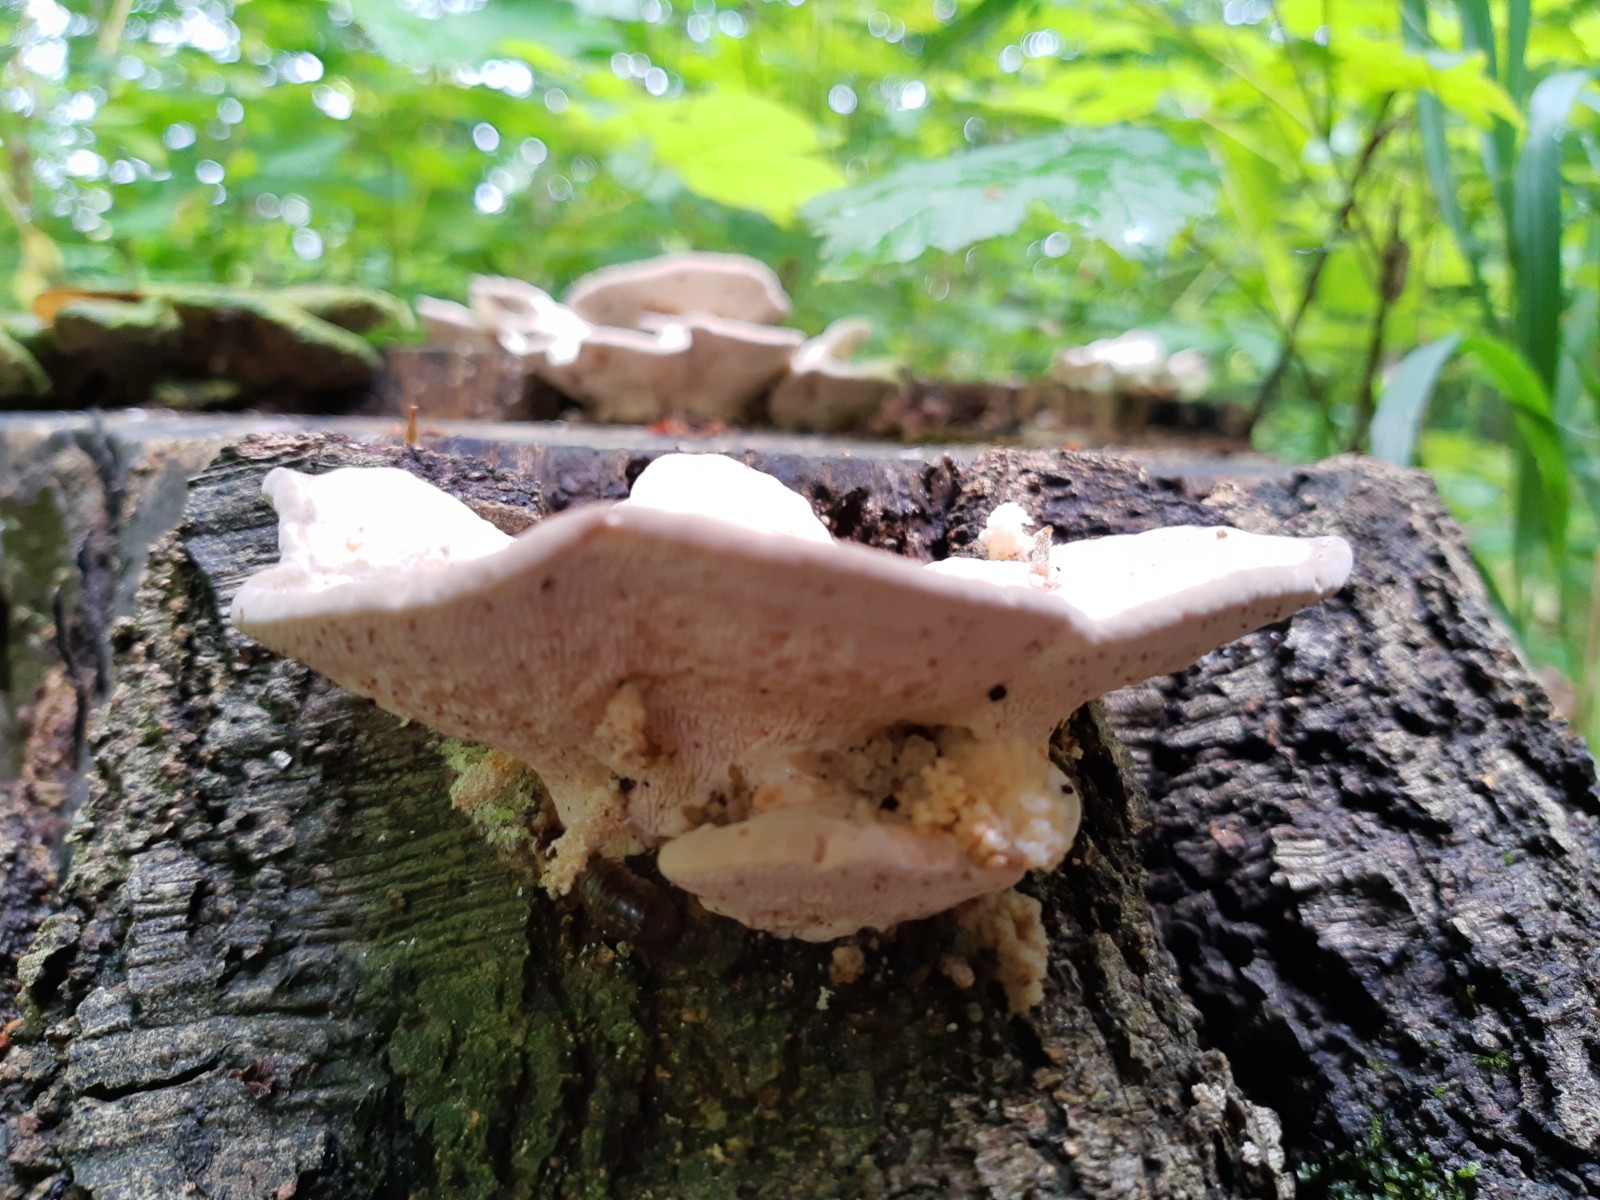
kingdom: Fungi
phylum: Basidiomycota
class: Agaricomycetes
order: Polyporales
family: Polyporaceae
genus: Trametes
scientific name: Trametes gibbosa
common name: puklet læderporesvamp
